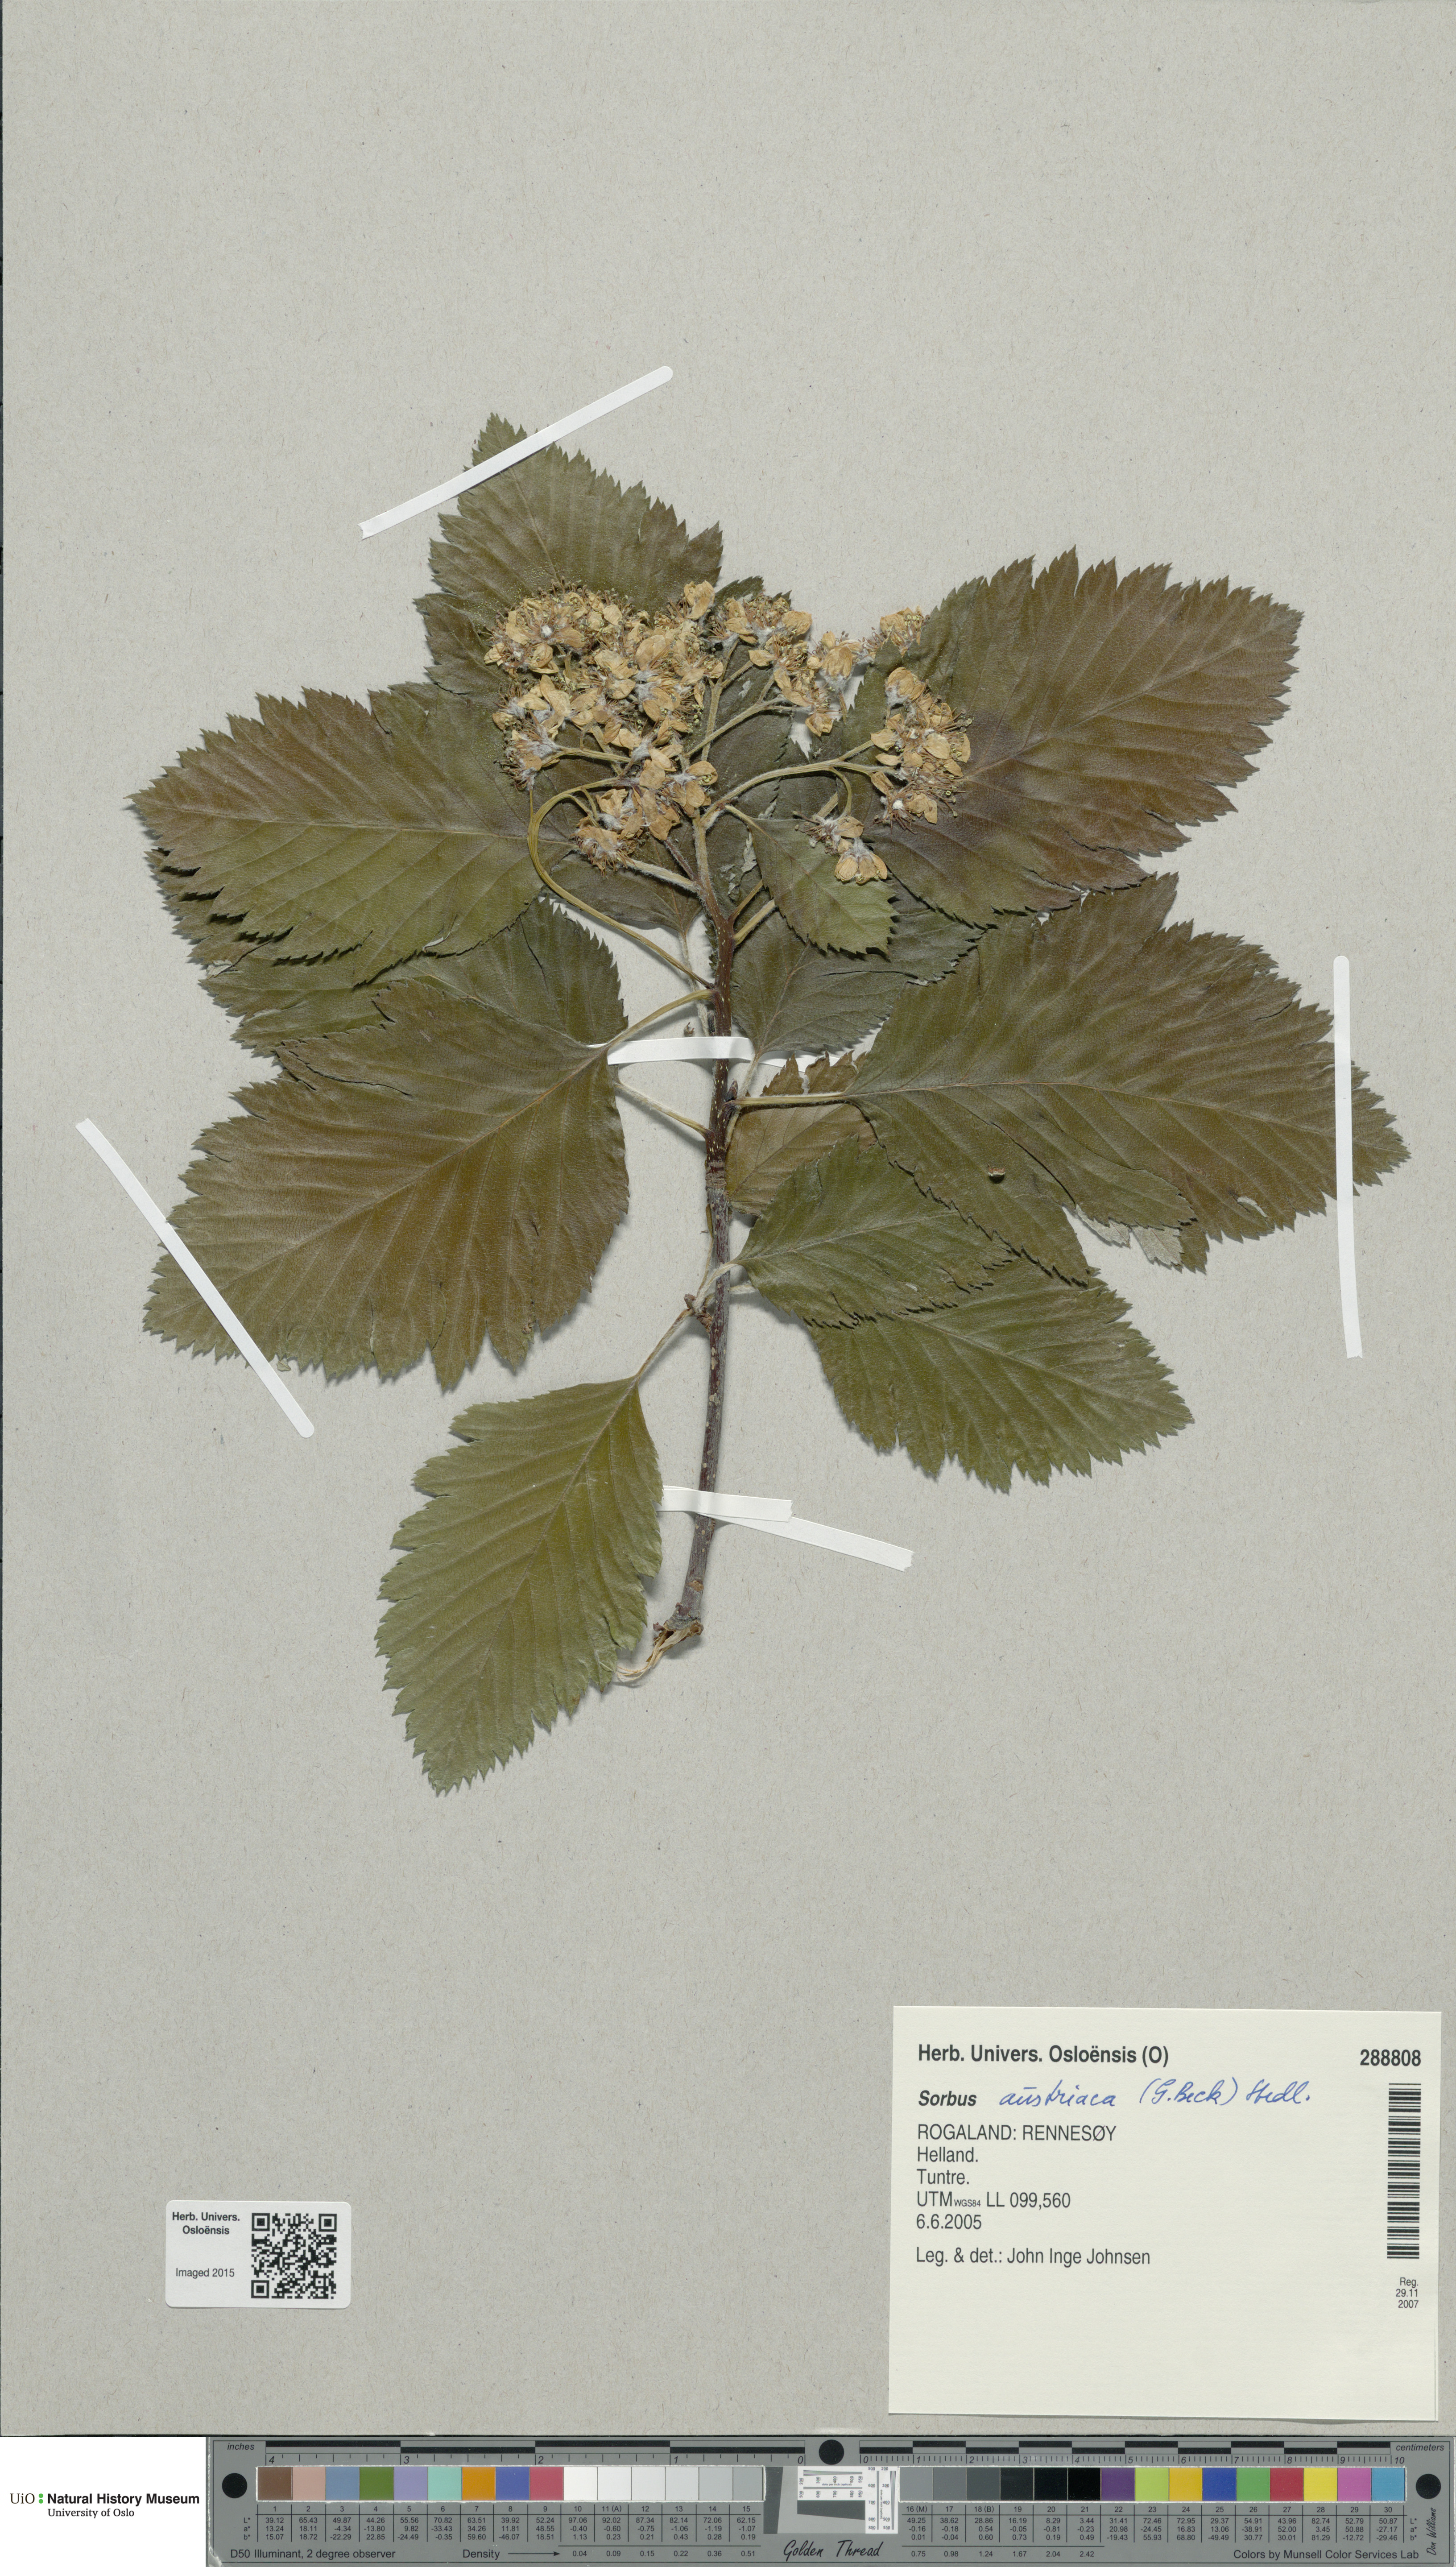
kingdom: Plantae
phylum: Tracheophyta
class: Magnoliopsida
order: Rosales
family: Rosaceae
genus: Hedlundia
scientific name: Hedlundia austriaca
